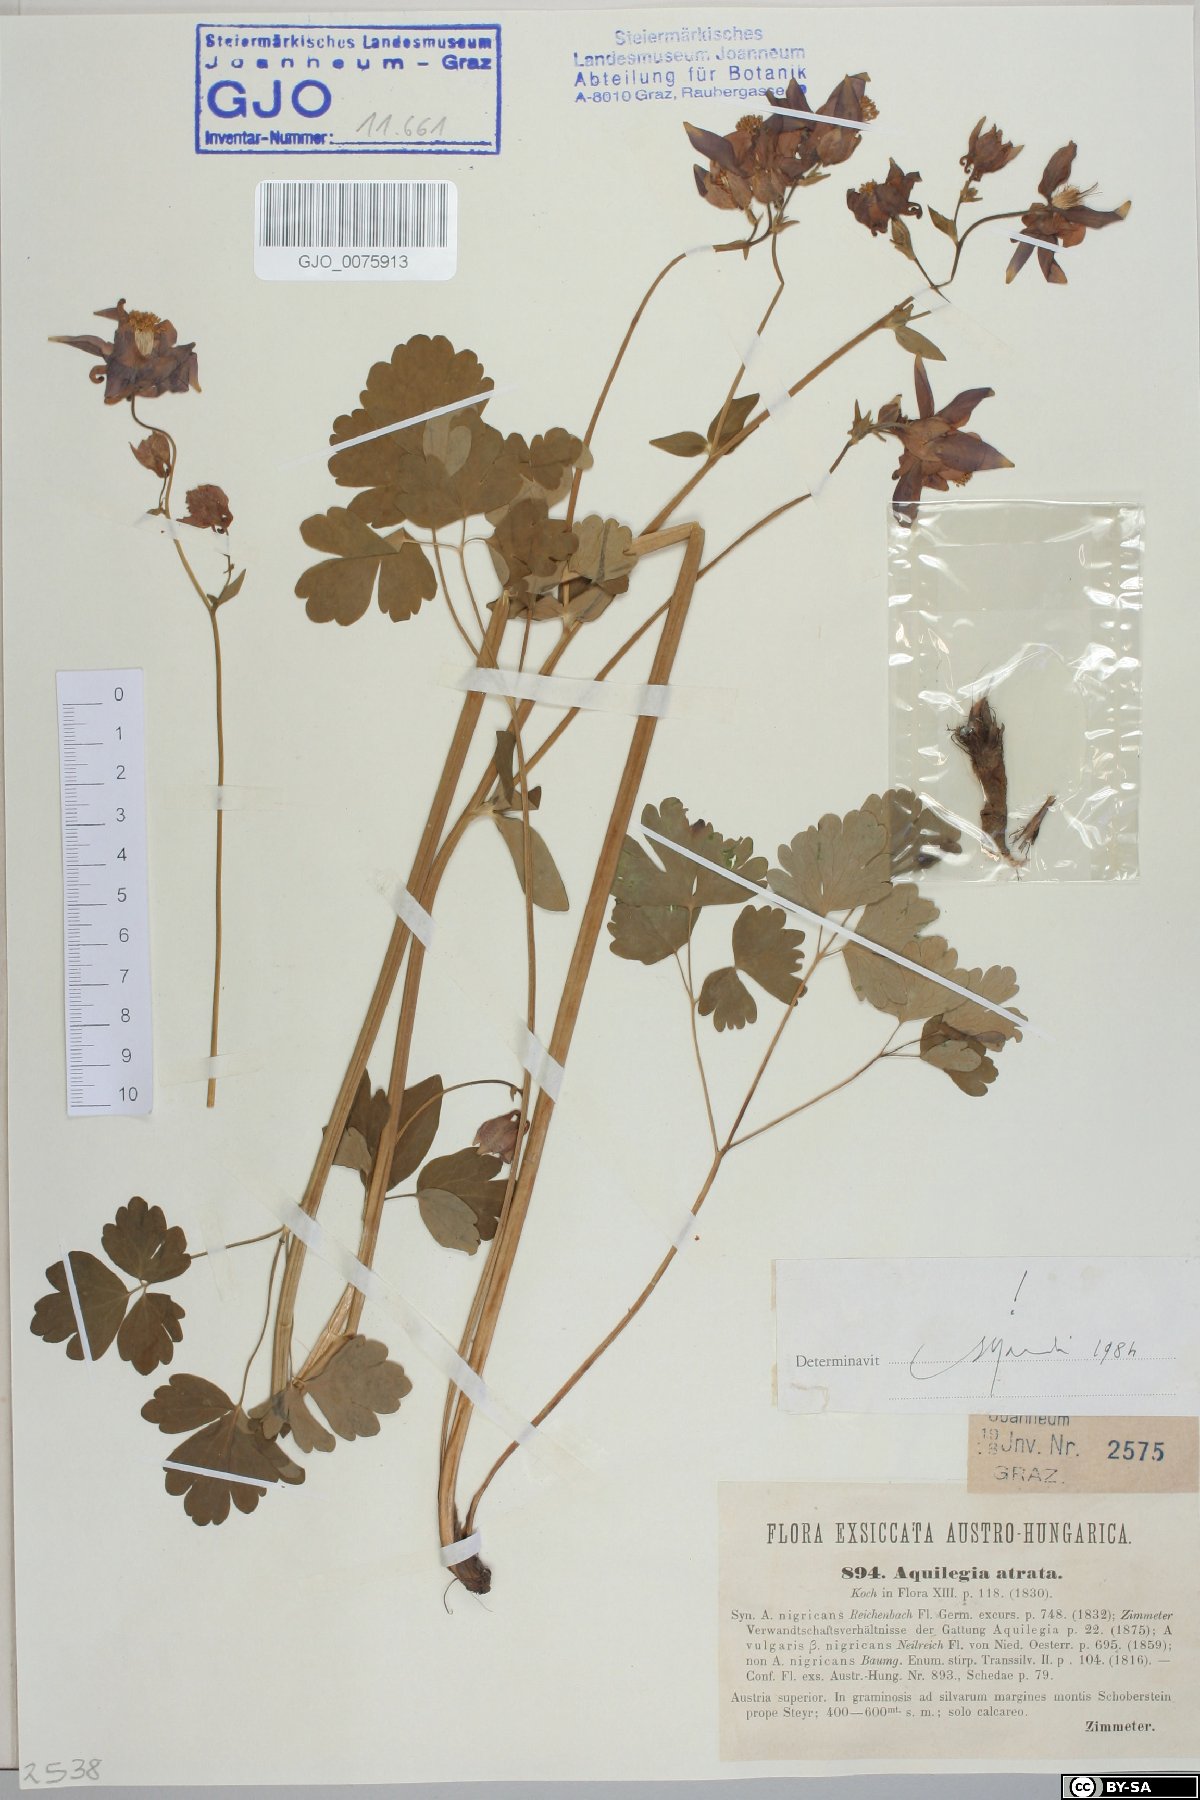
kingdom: Plantae
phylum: Tracheophyta
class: Magnoliopsida
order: Ranunculales
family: Ranunculaceae
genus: Aquilegia
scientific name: Aquilegia atrata
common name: Dark columbine
